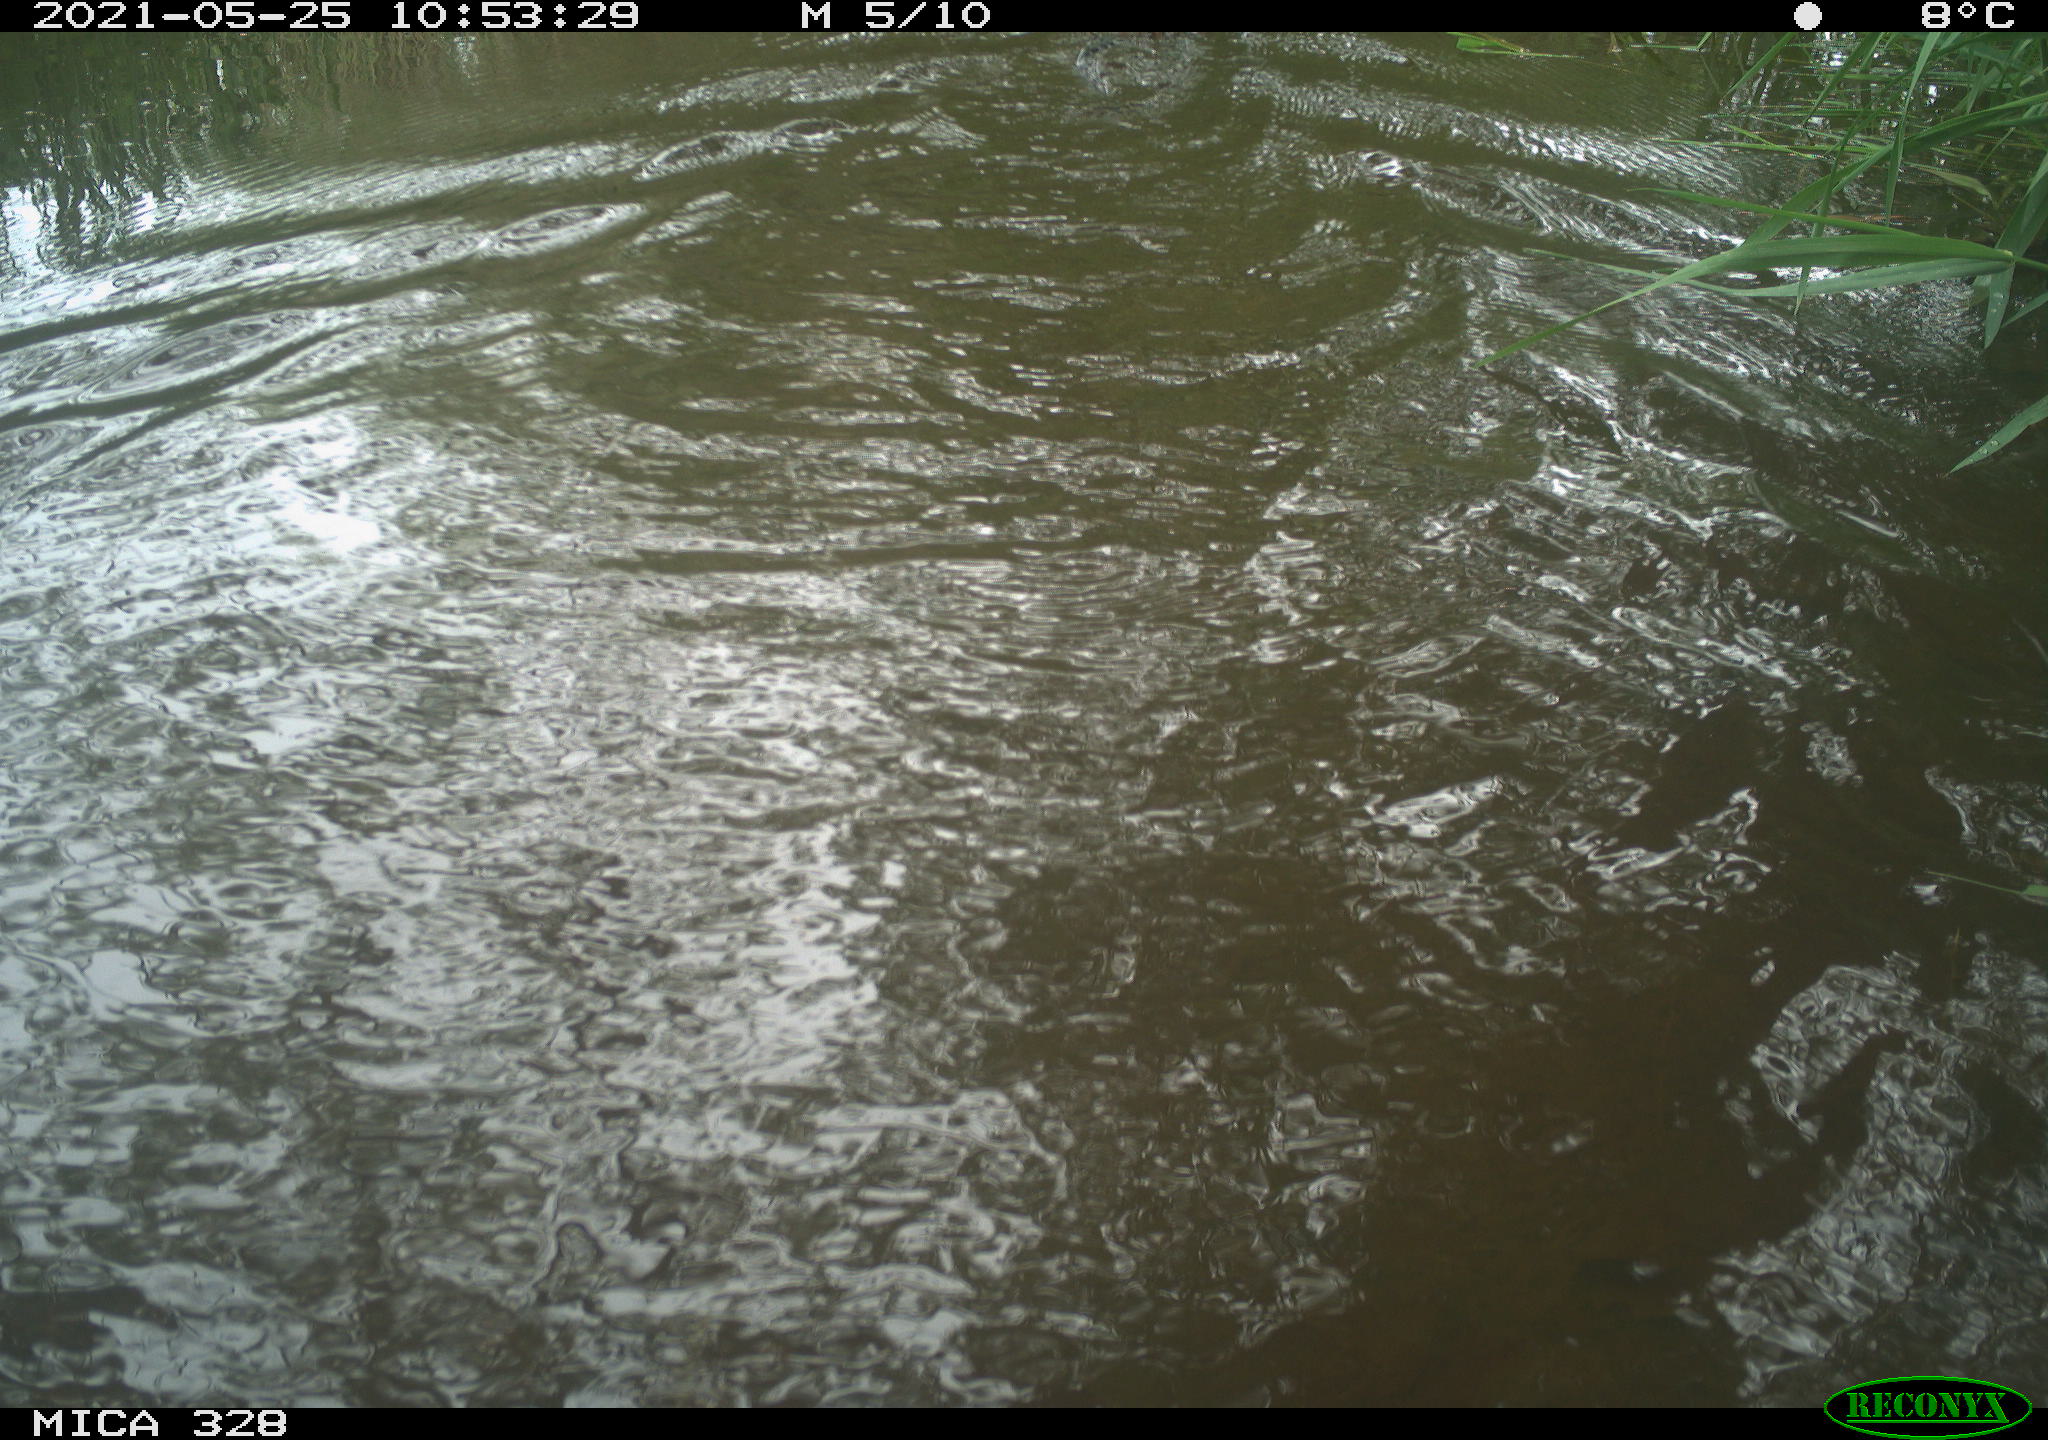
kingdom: Animalia
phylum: Chordata
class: Mammalia
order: Rodentia
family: Cricetidae
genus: Ondatra
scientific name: Ondatra zibethicus
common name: Muskrat
